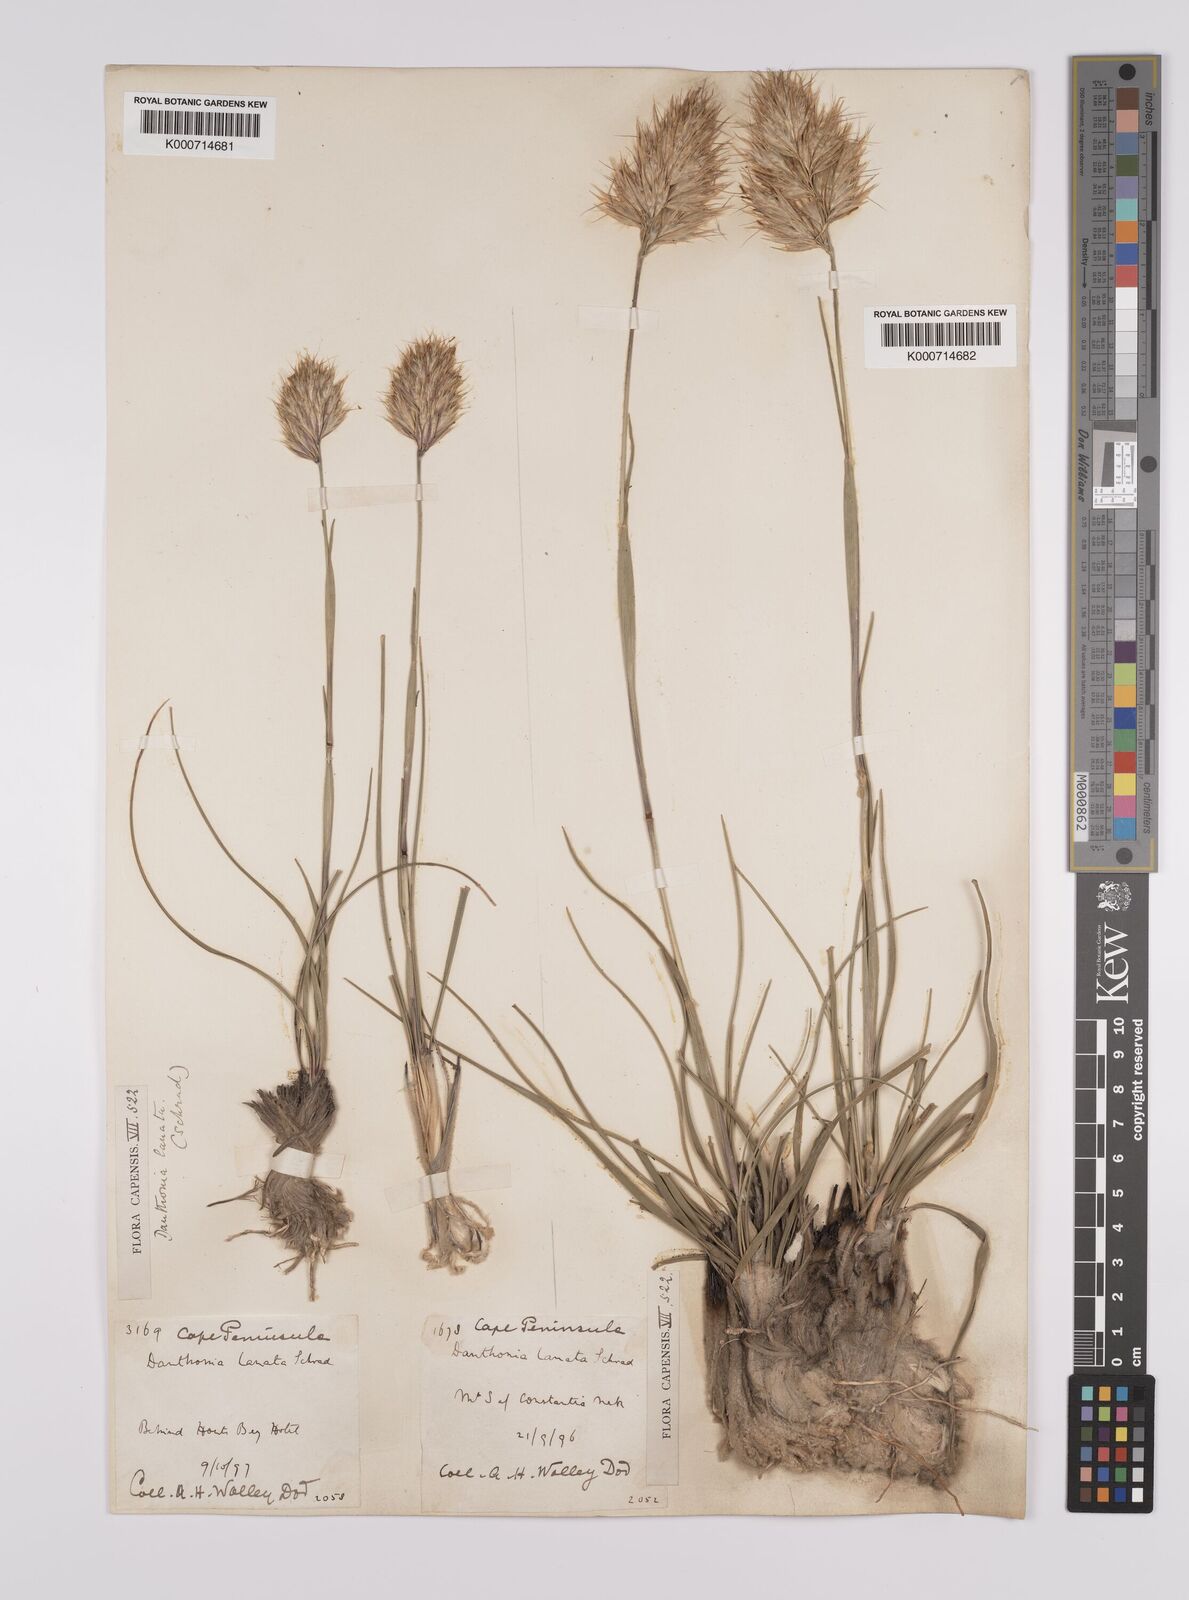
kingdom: Plantae
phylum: Tracheophyta
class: Liliopsida
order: Poales
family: Poaceae
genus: Rytidosperma
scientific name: Rytidosperma
